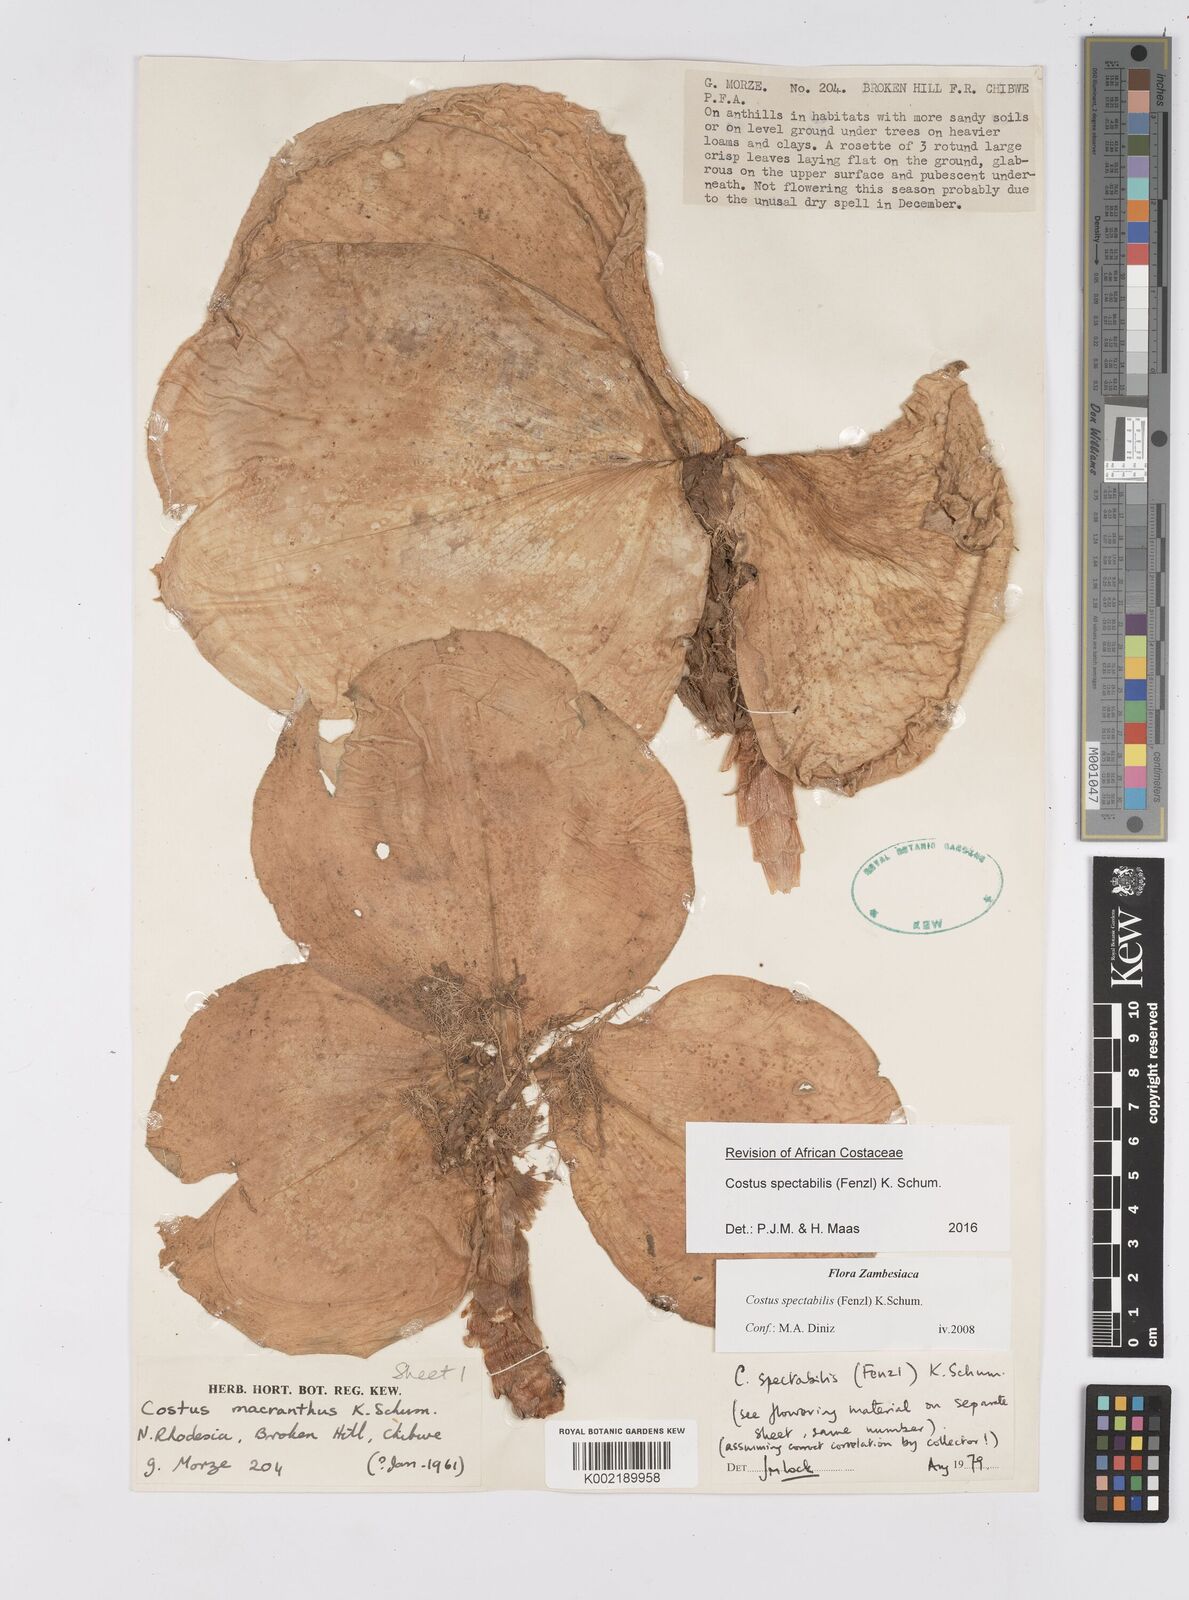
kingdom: Plantae
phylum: Tracheophyta
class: Liliopsida
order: Zingiberales
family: Costaceae
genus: Costus
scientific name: Costus spectabilis
